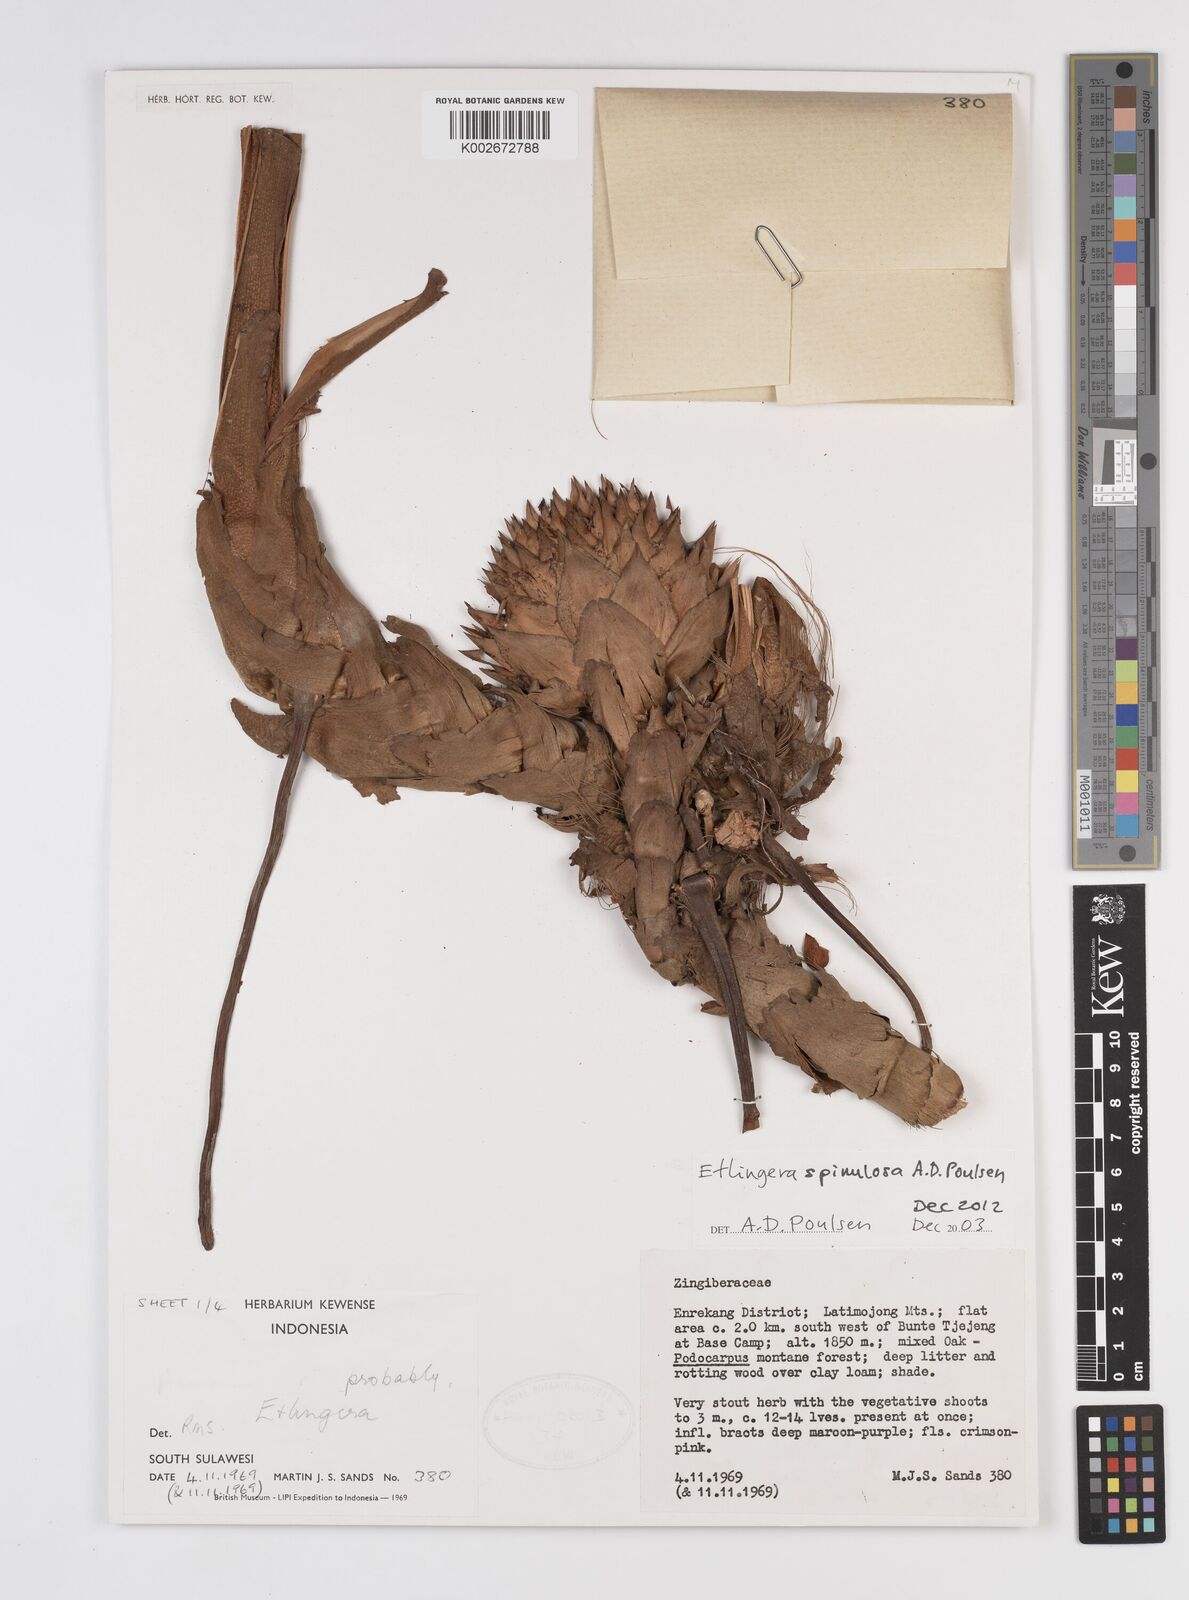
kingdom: Plantae
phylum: Tracheophyta
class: Liliopsida
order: Zingiberales
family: Zingiberaceae
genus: Etlingera
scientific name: Etlingera spinulosa
